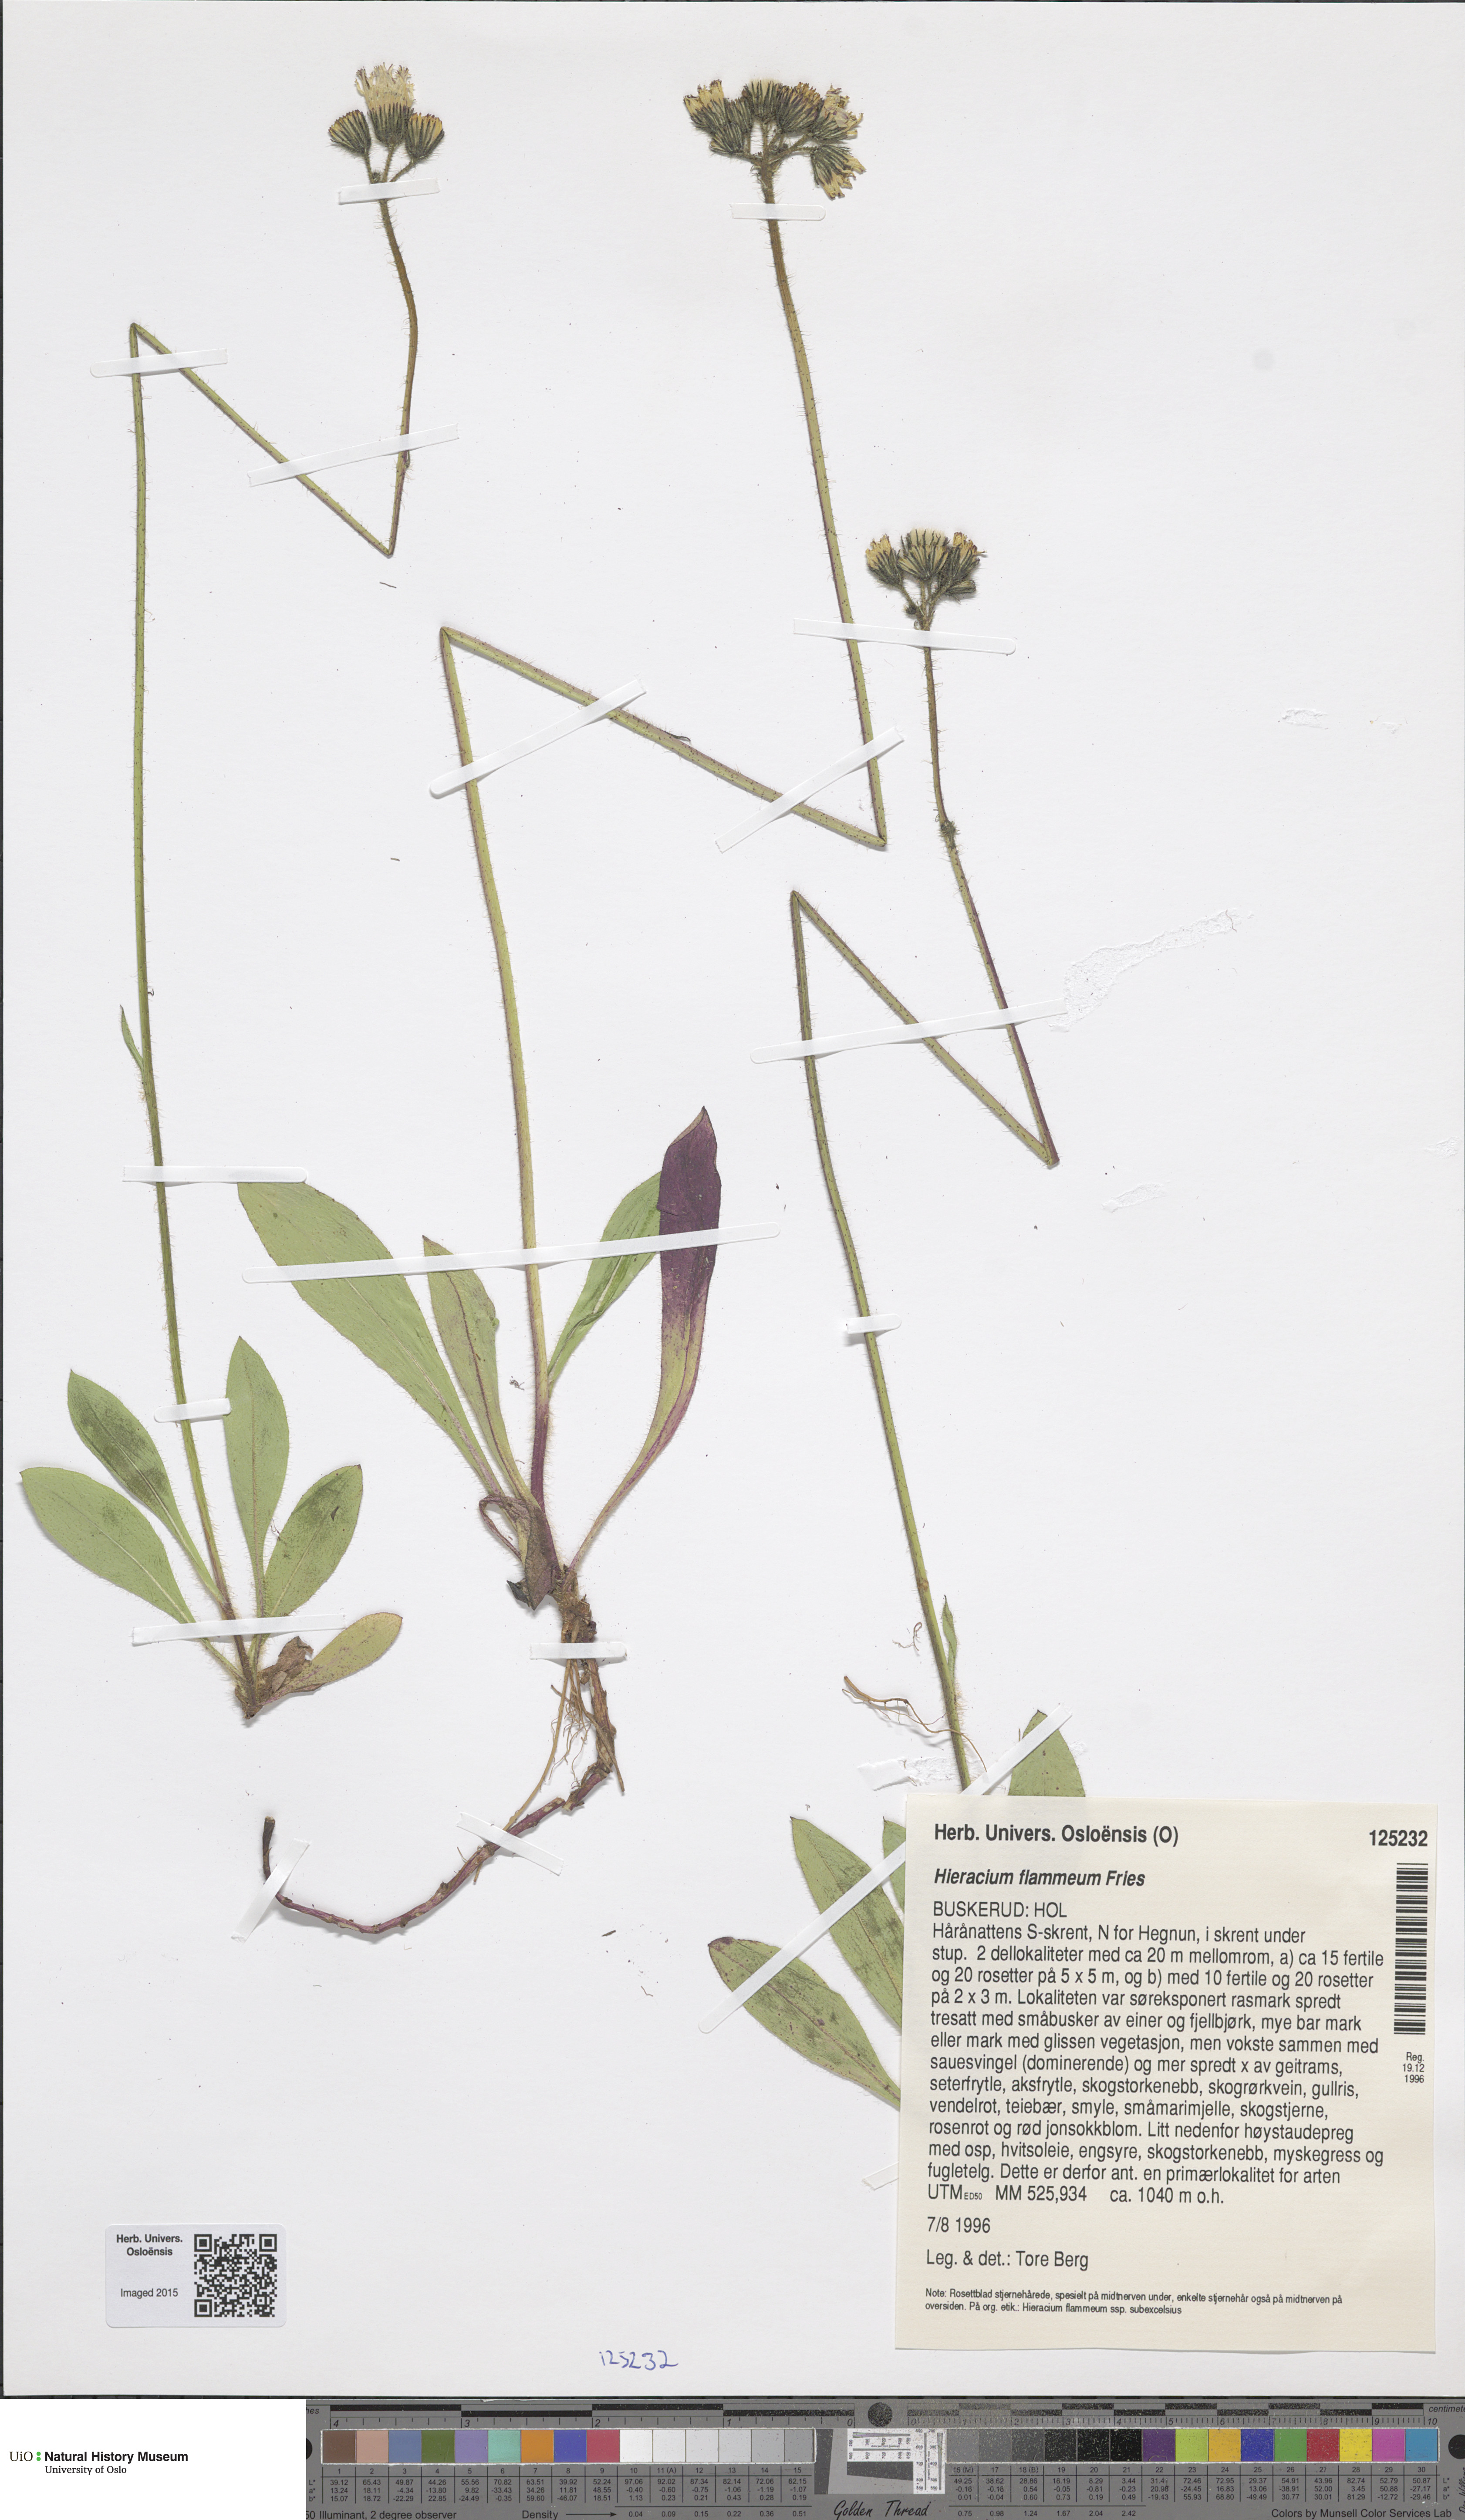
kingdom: Plantae
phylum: Tracheophyta
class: Magnoliopsida
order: Asterales
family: Asteraceae
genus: Pilosella
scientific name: Pilosella fuscoatra
